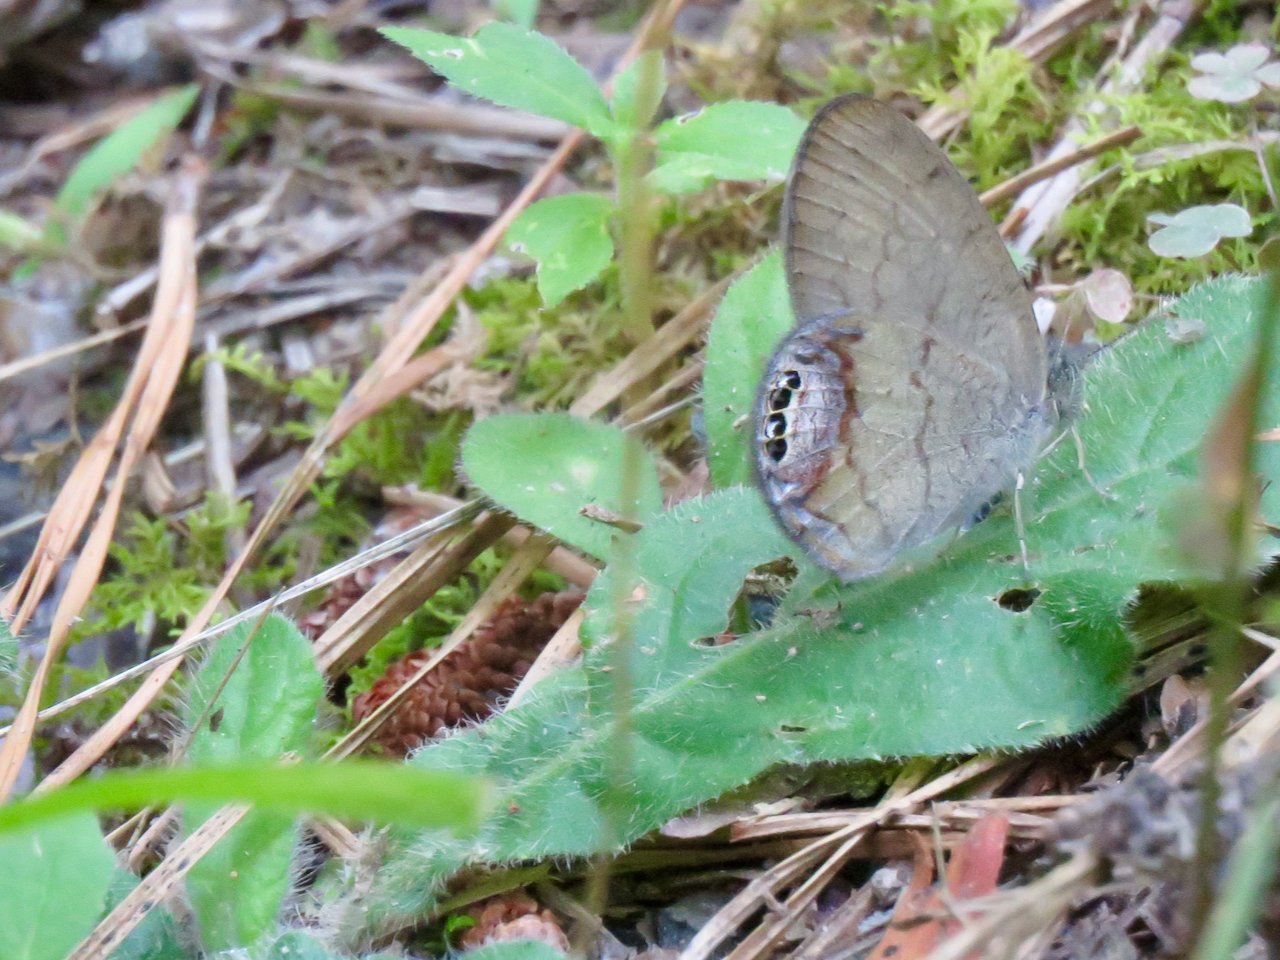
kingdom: Animalia
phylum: Arthropoda
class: Insecta
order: Lepidoptera
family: Nymphalidae
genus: Euptychia
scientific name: Euptychia cornelius
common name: Gemmed Satyr
